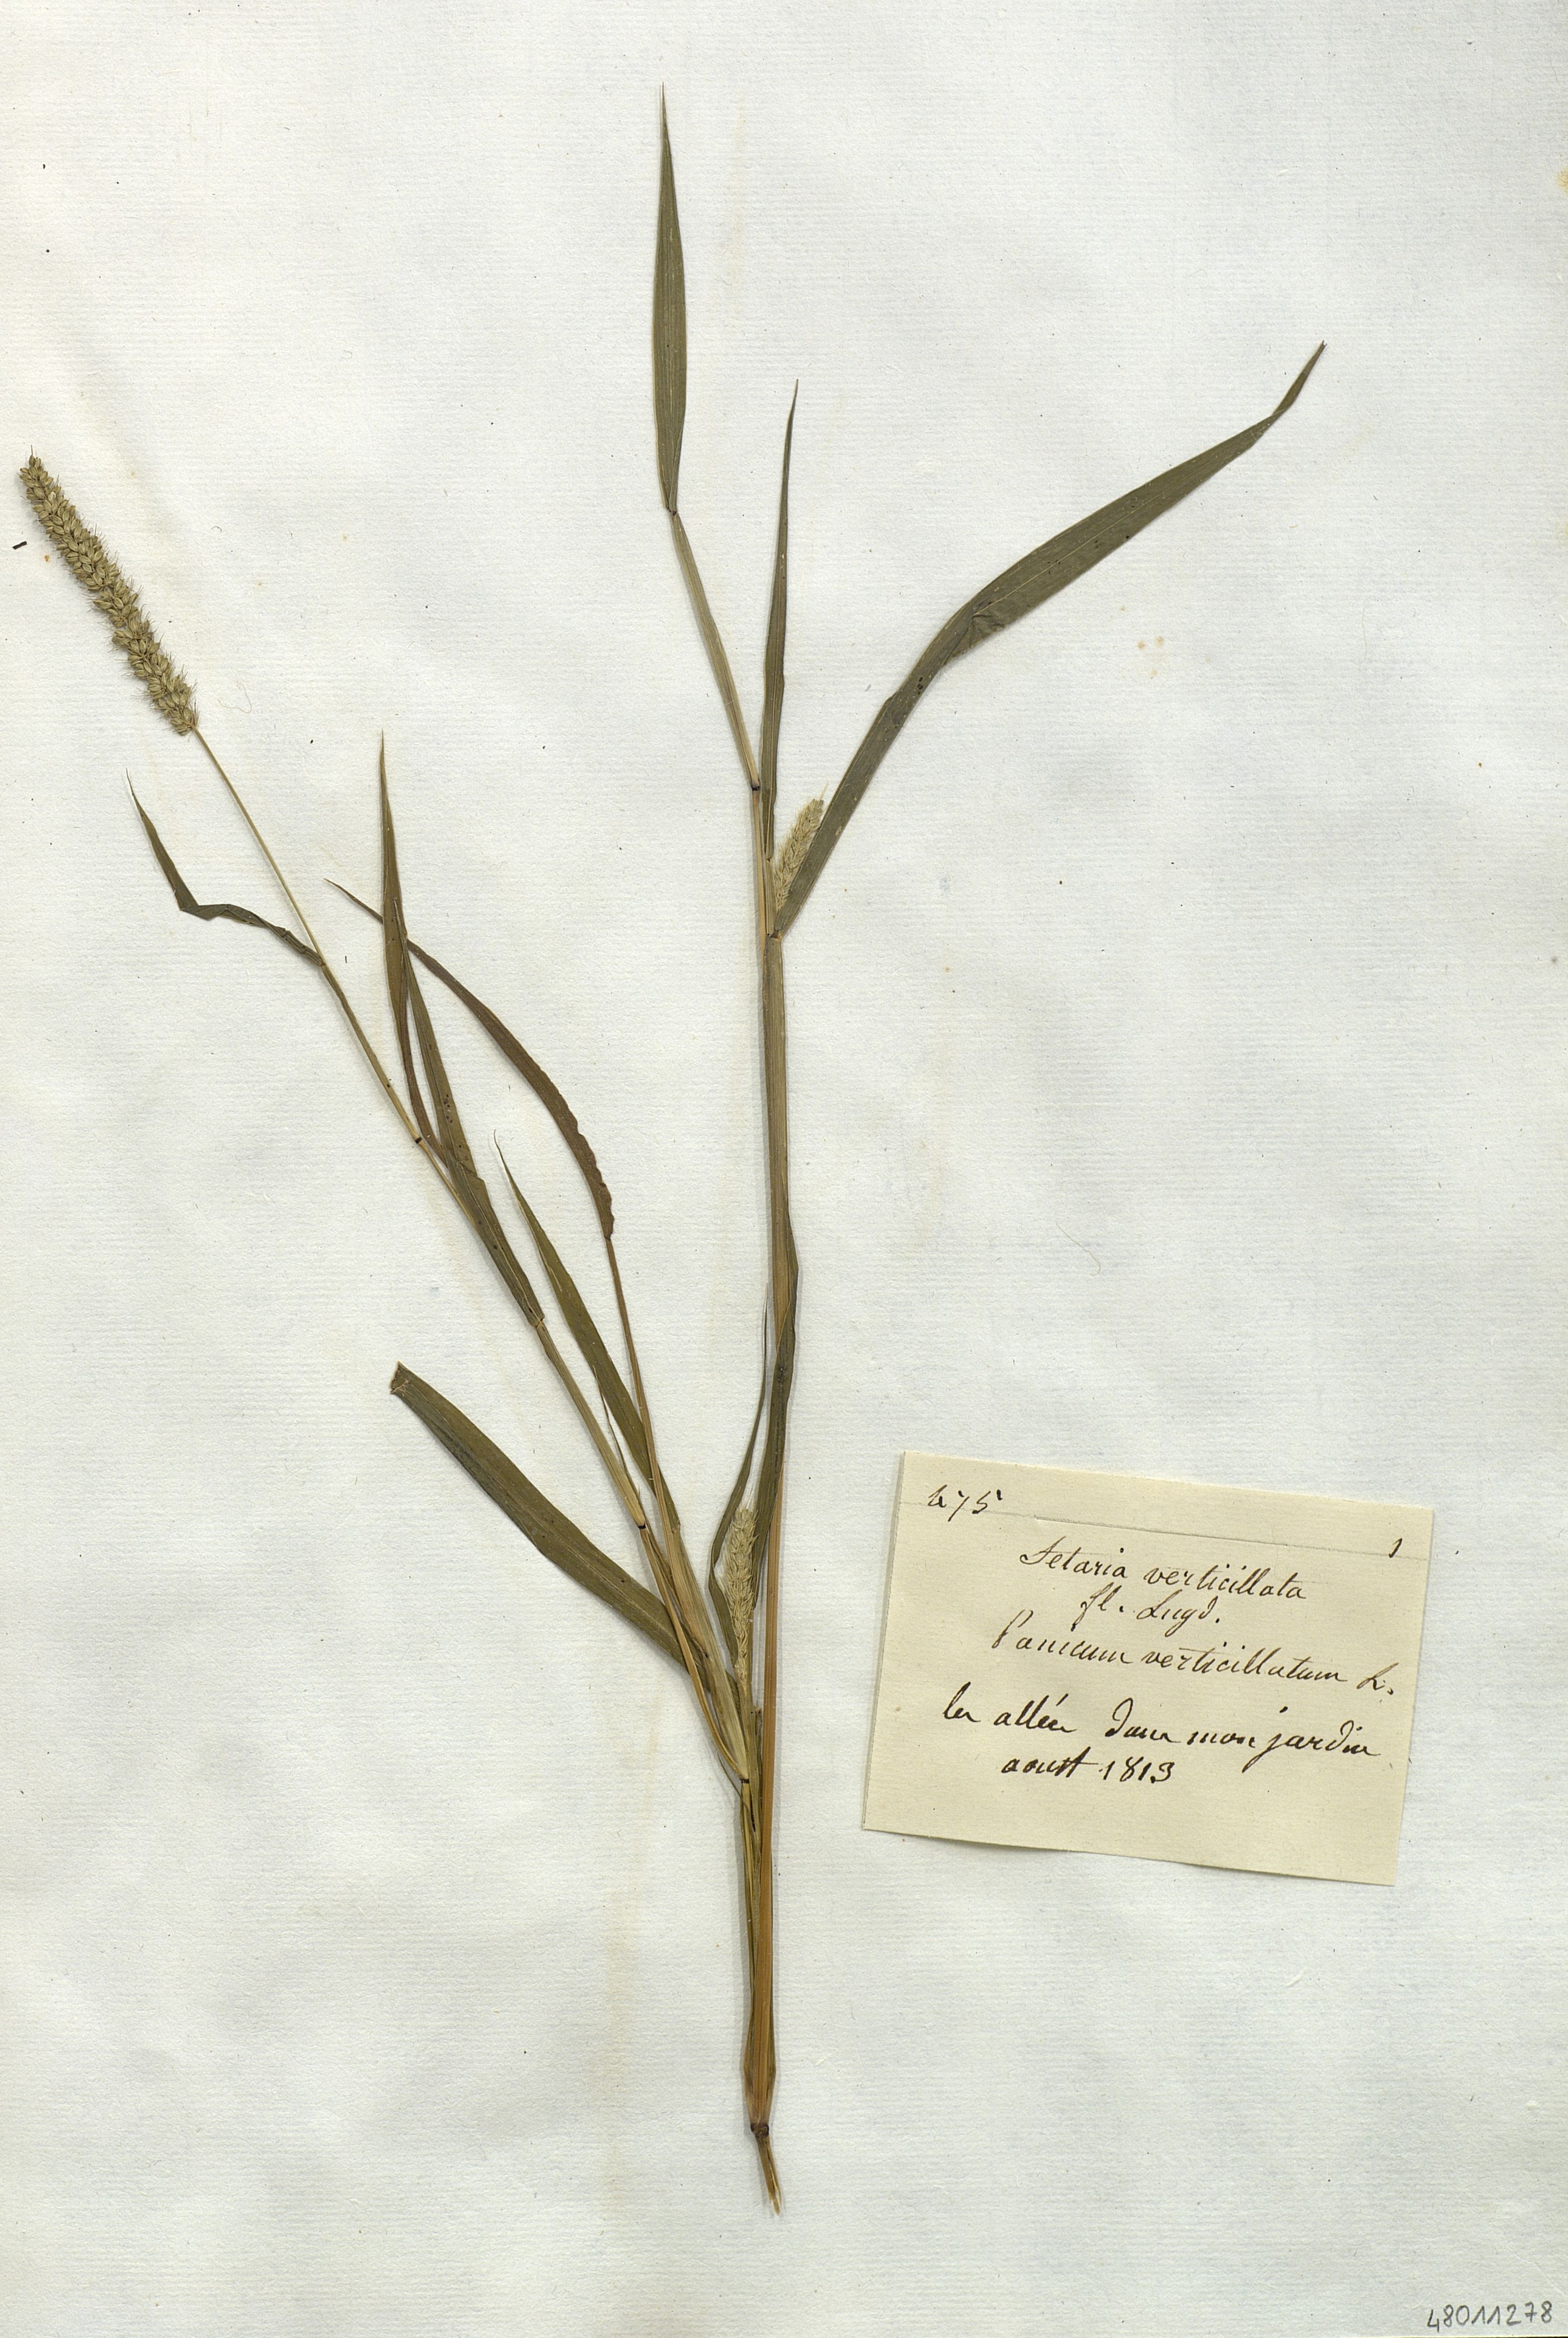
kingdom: Plantae
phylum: Tracheophyta
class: Liliopsida
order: Poales
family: Poaceae
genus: Setaria
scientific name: Setaria verticillata
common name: Hooked bristlegrass
